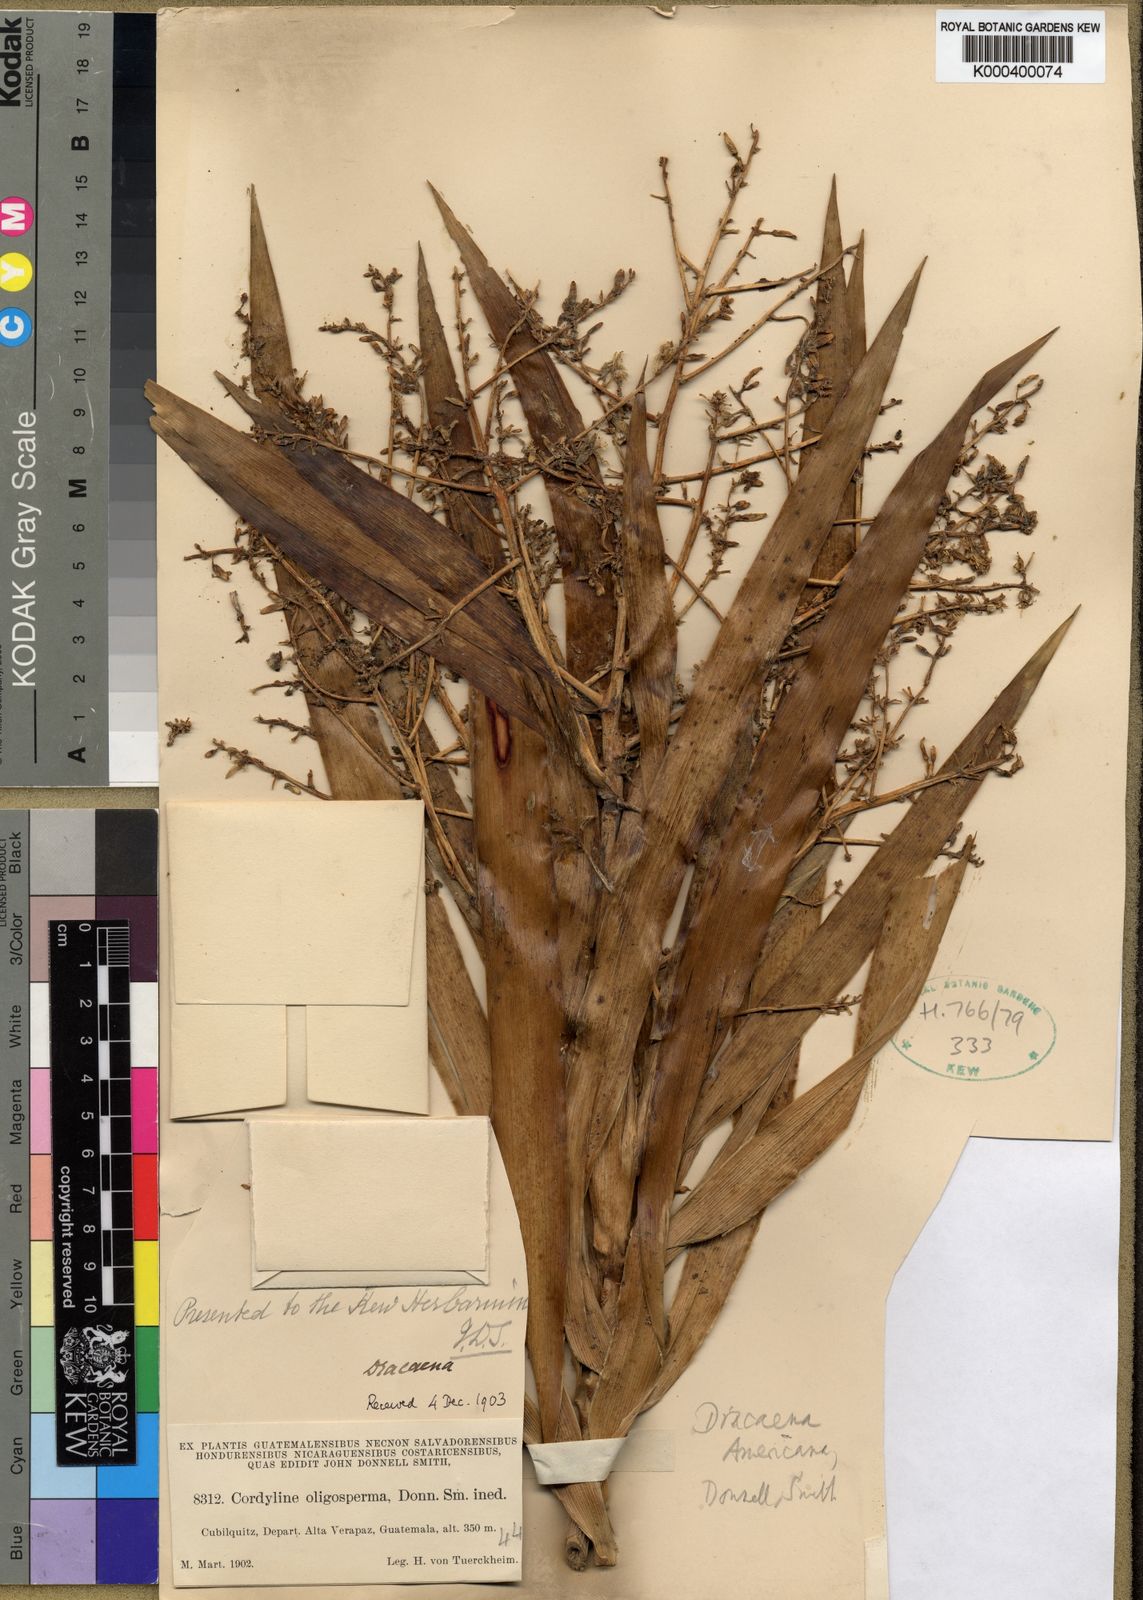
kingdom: Plantae
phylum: Tracheophyta
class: Liliopsida
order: Asparagales
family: Asparagaceae
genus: Dracaena
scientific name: Dracaena
